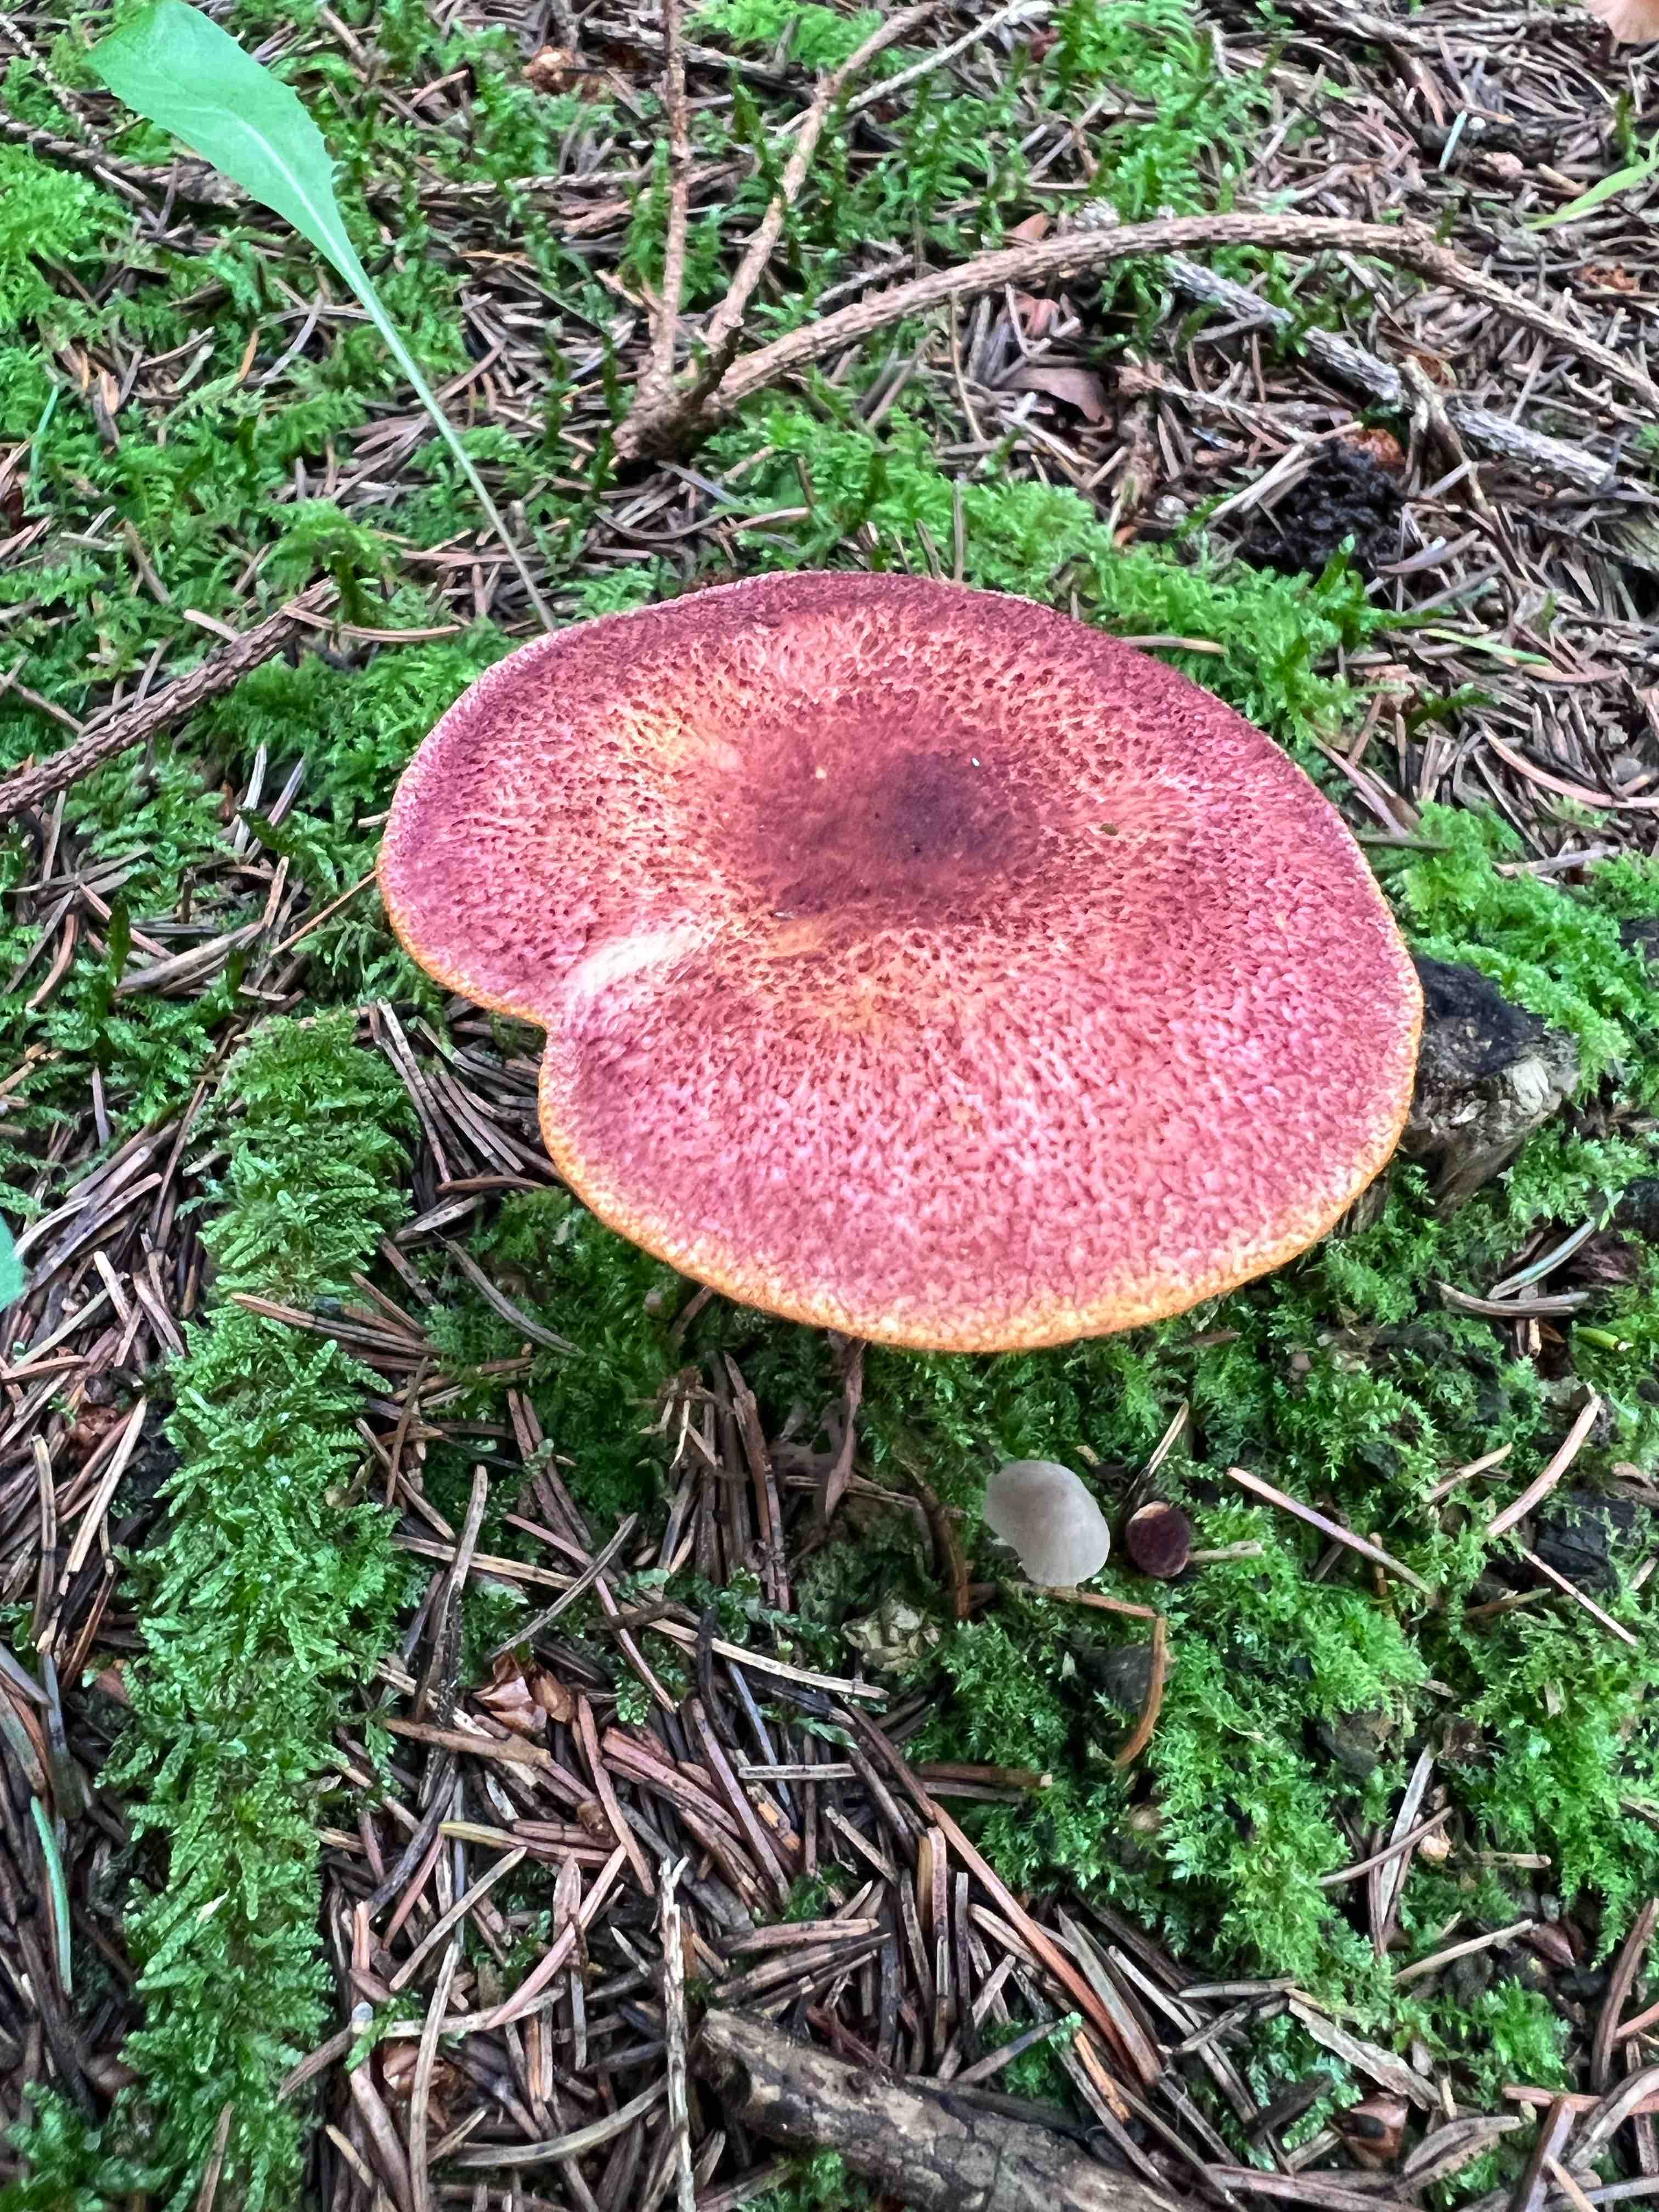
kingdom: Fungi
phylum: Basidiomycota
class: Agaricomycetes
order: Agaricales
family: Tricholomataceae
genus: Tricholomopsis
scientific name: Tricholomopsis rutilans
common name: purpur-væbnerhat
